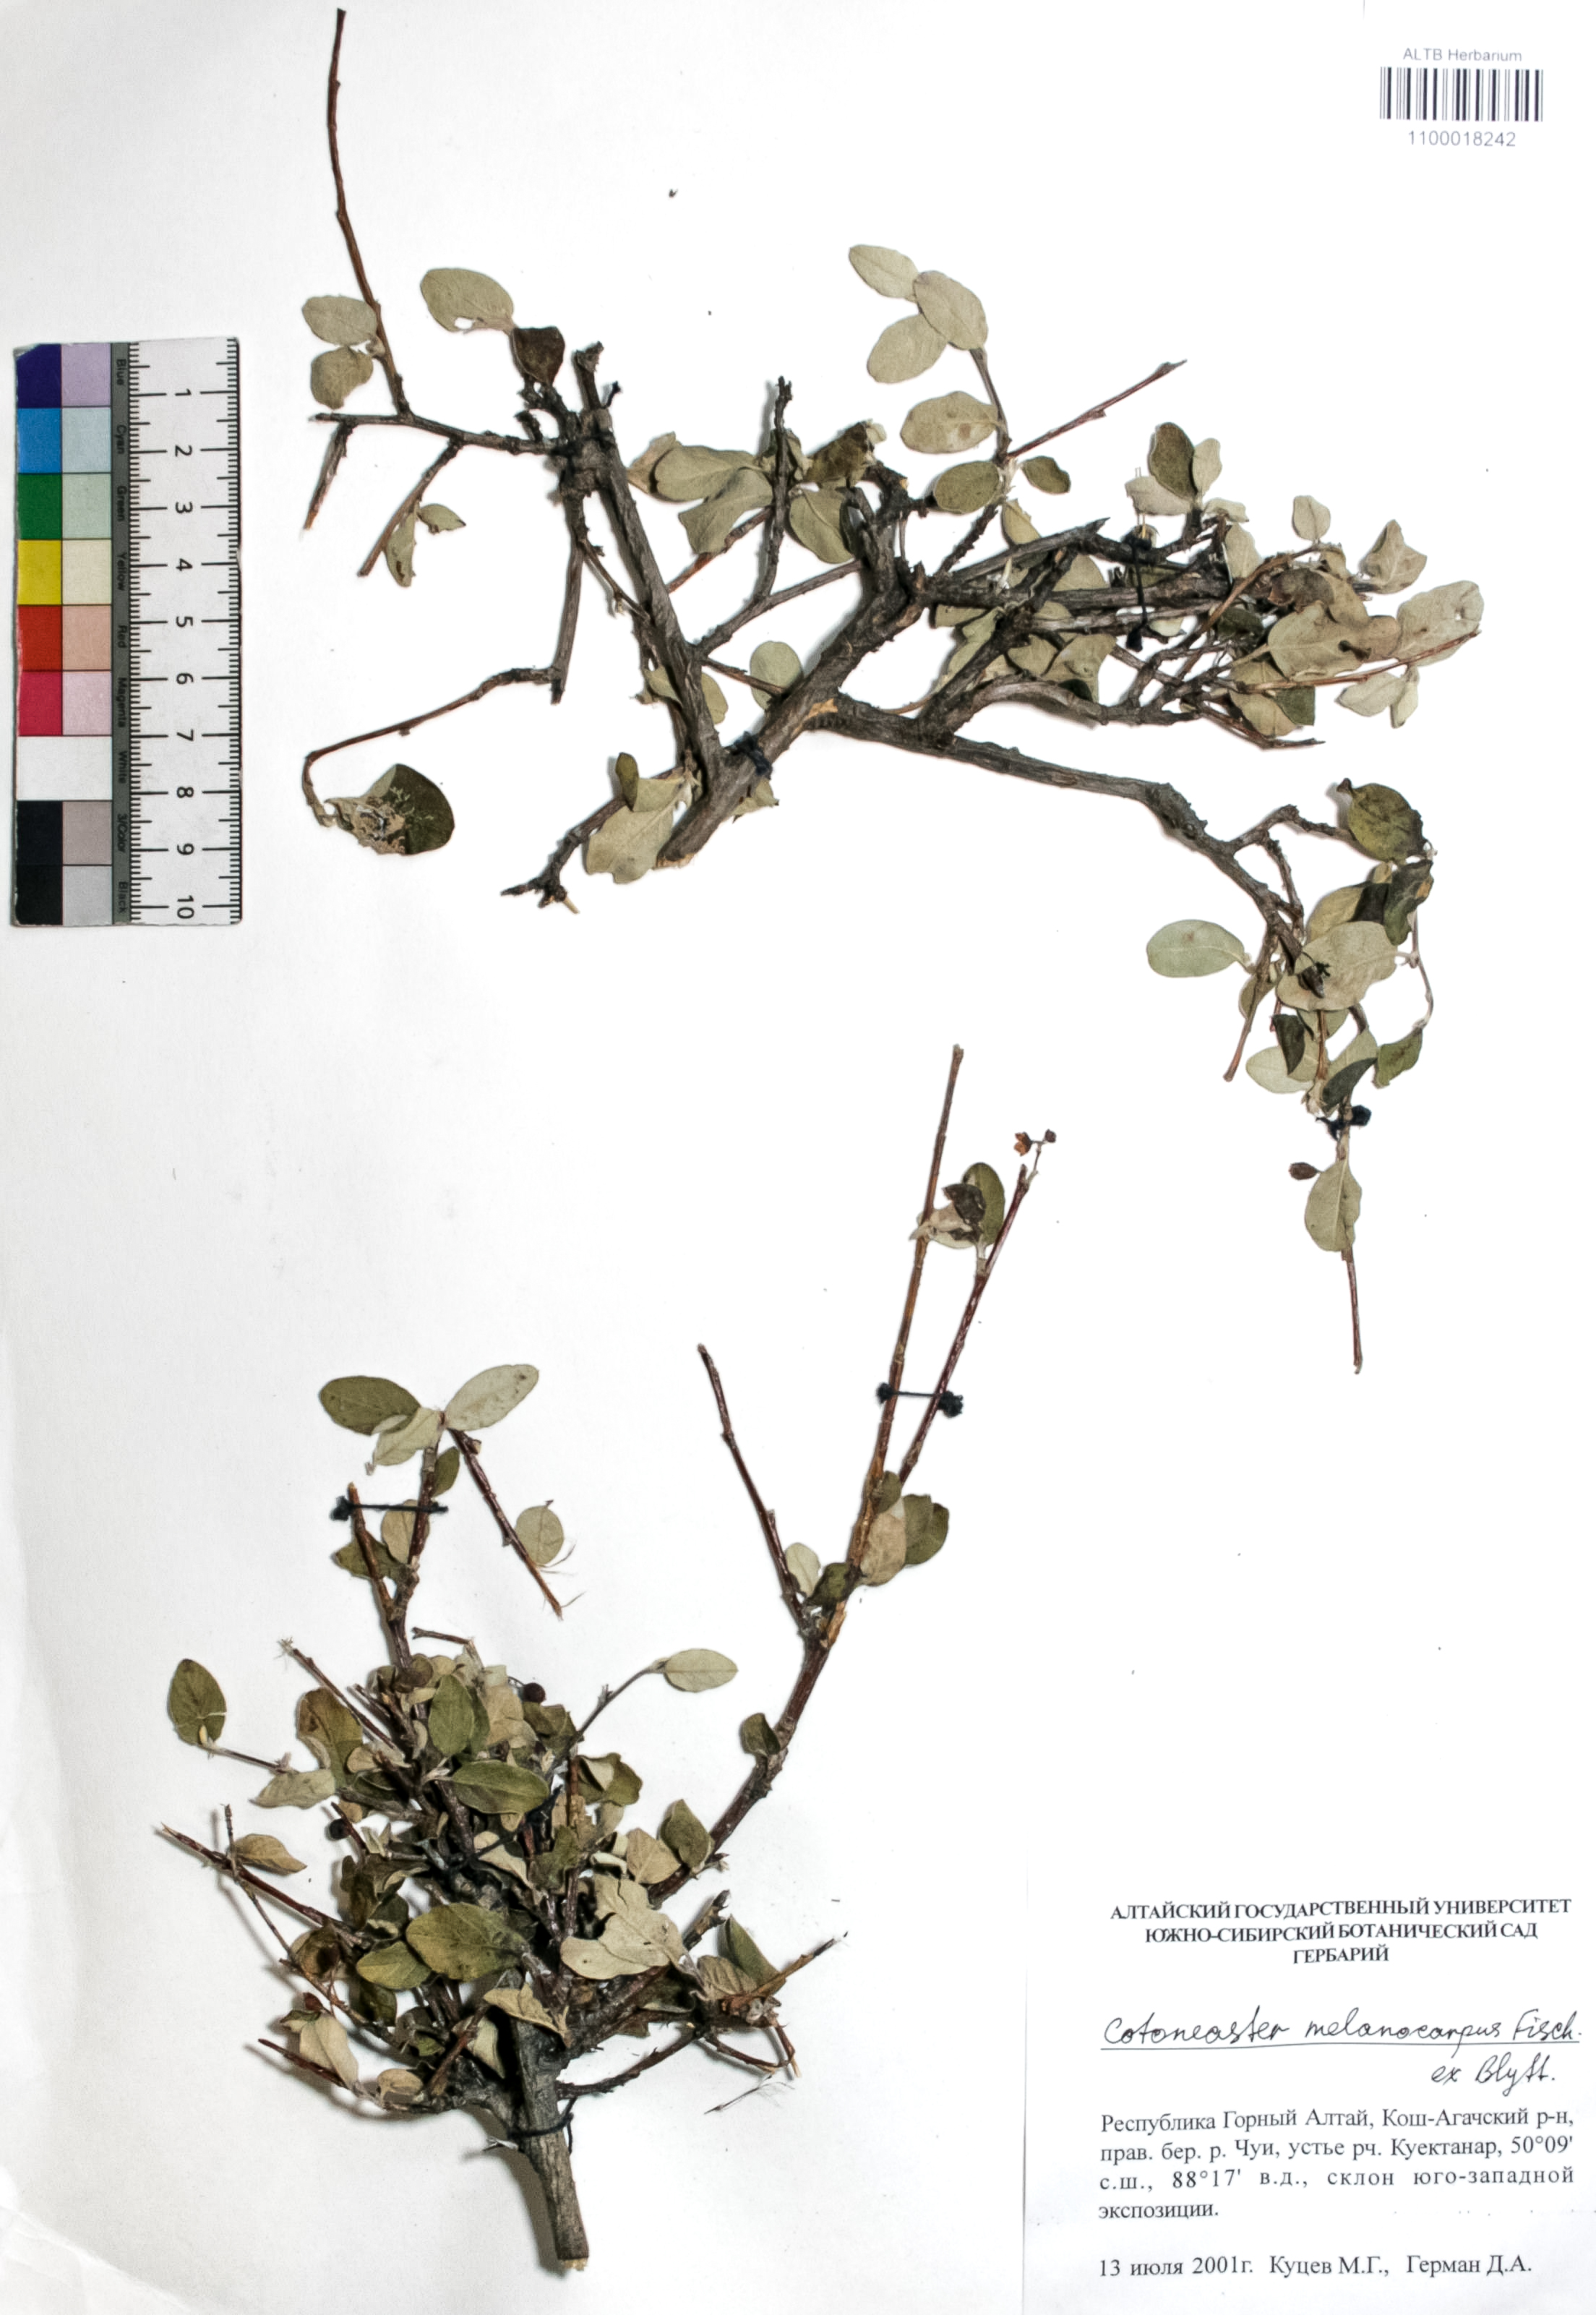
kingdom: Plantae
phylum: Tracheophyta
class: Magnoliopsida
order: Rosales
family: Rosaceae
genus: Cotoneaster
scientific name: Cotoneaster niger
